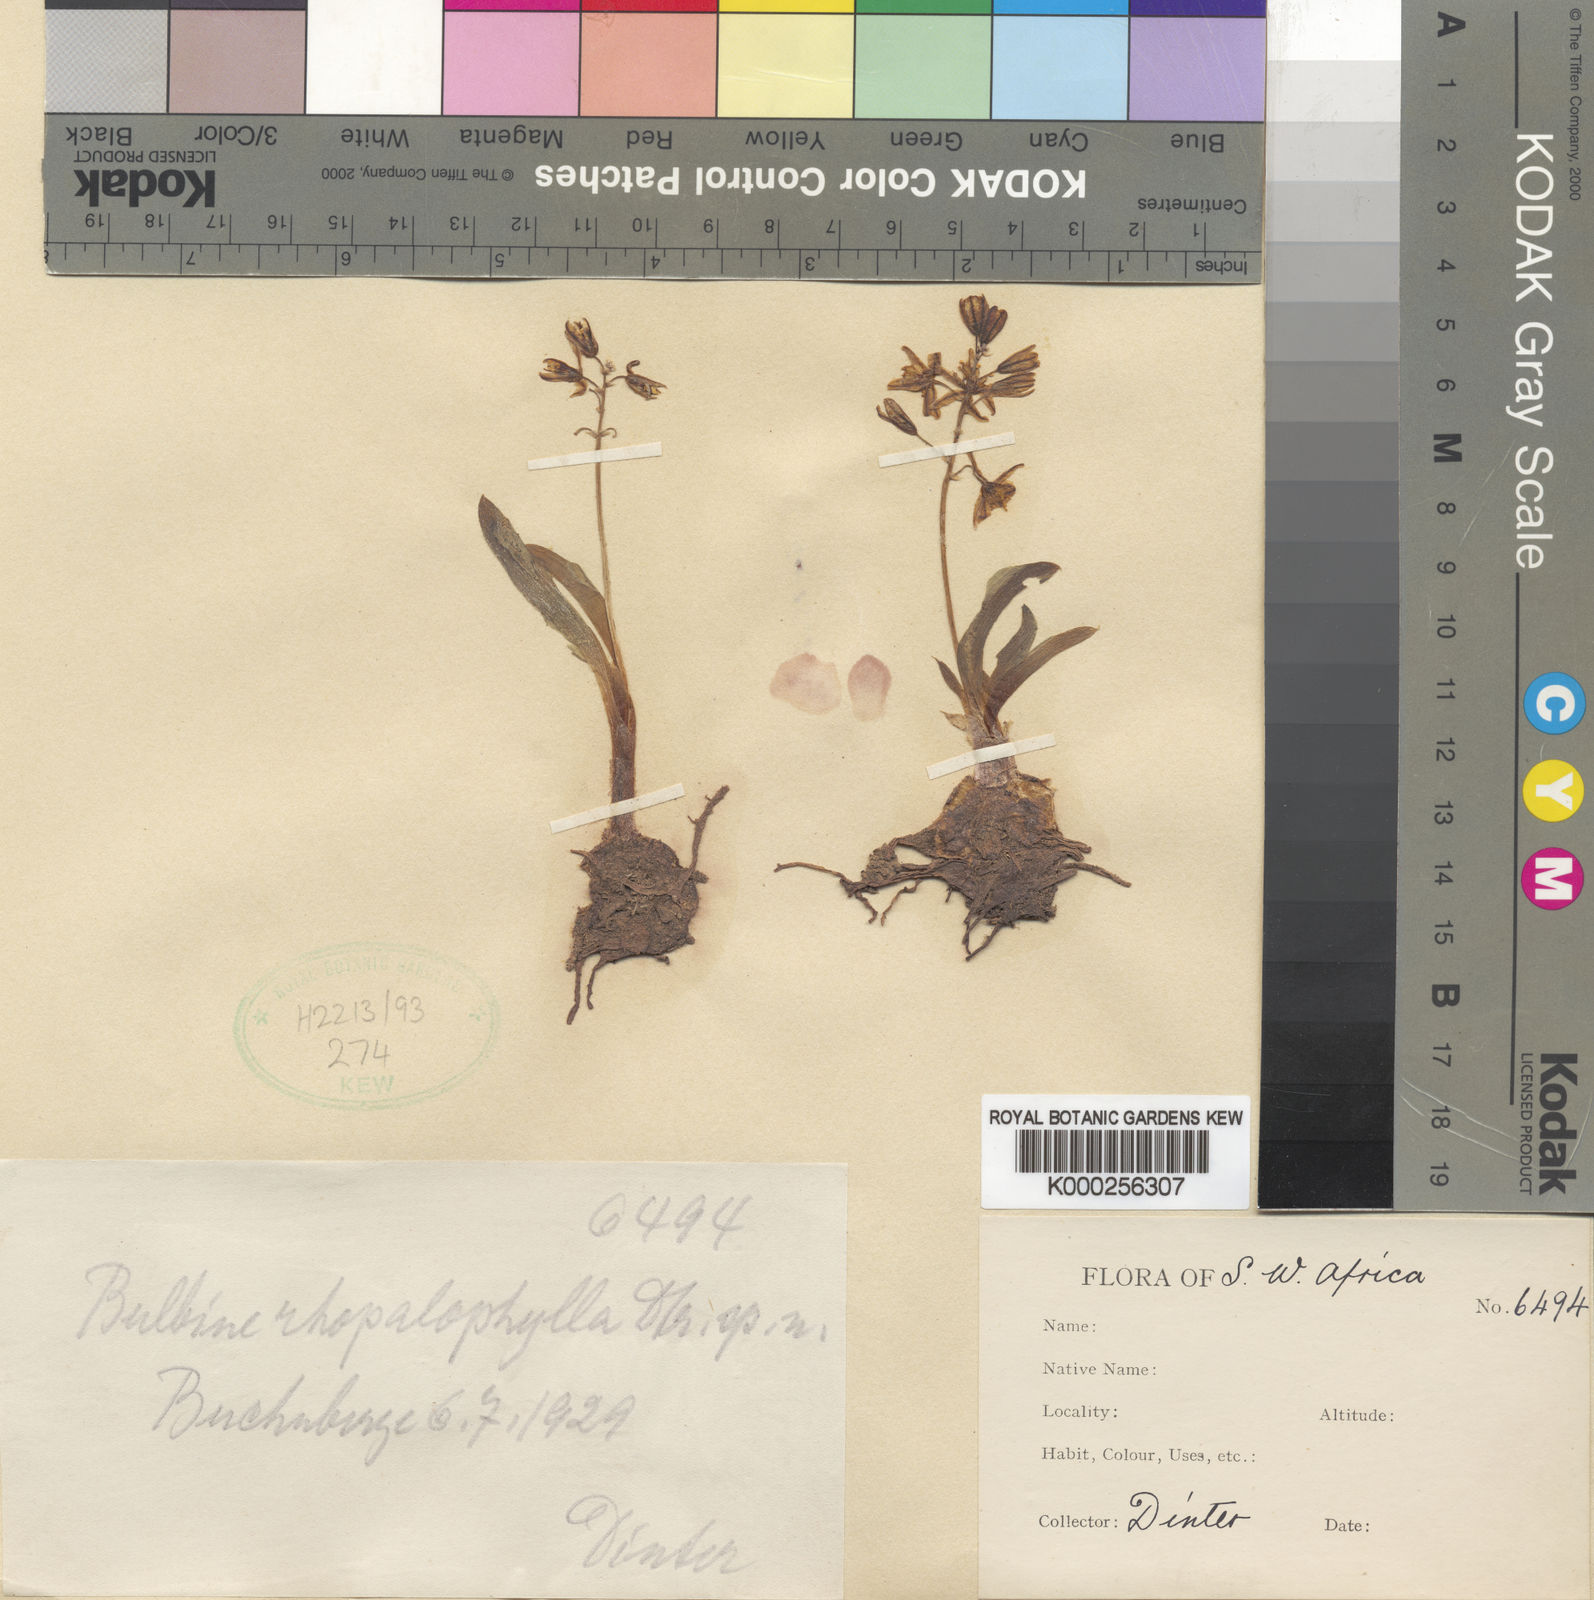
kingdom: Plantae
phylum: Tracheophyta
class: Liliopsida
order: Asparagales
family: Asphodelaceae
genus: Bulbine
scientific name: Bulbine rhopalophylla
